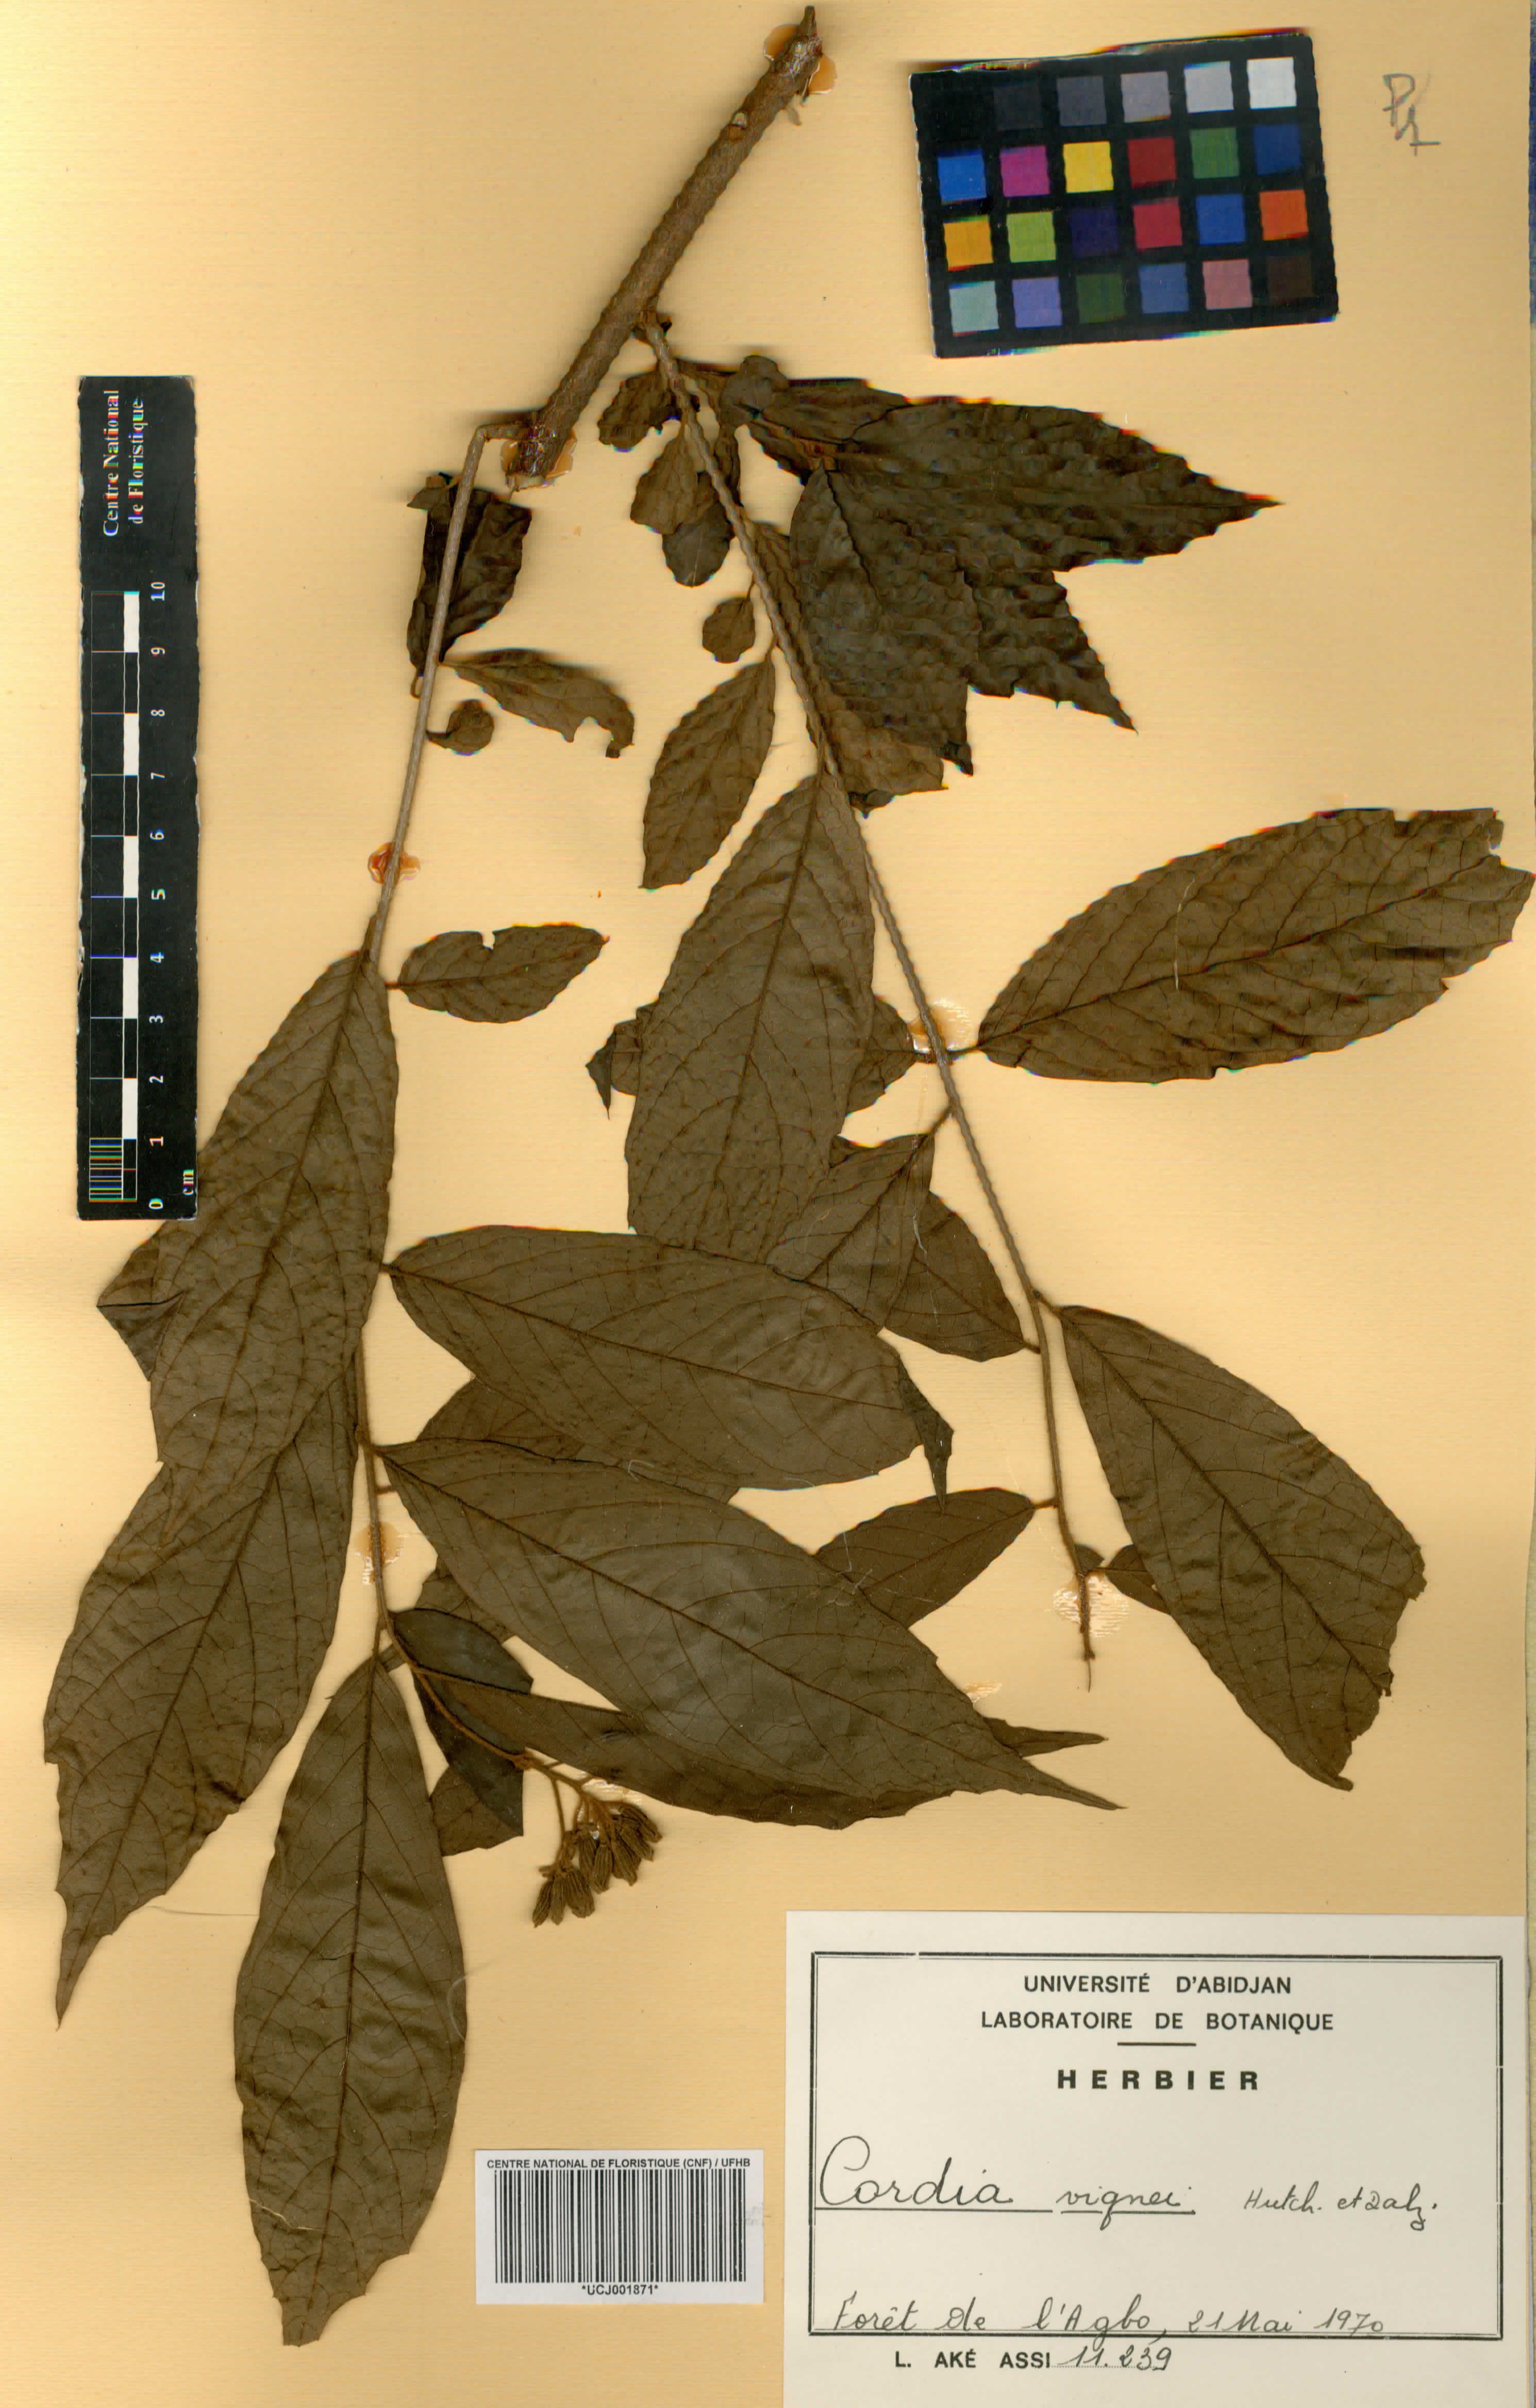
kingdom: Plantae
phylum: Tracheophyta
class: Magnoliopsida
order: Boraginales
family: Cordiaceae
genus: Cordia
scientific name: Cordia vignei
